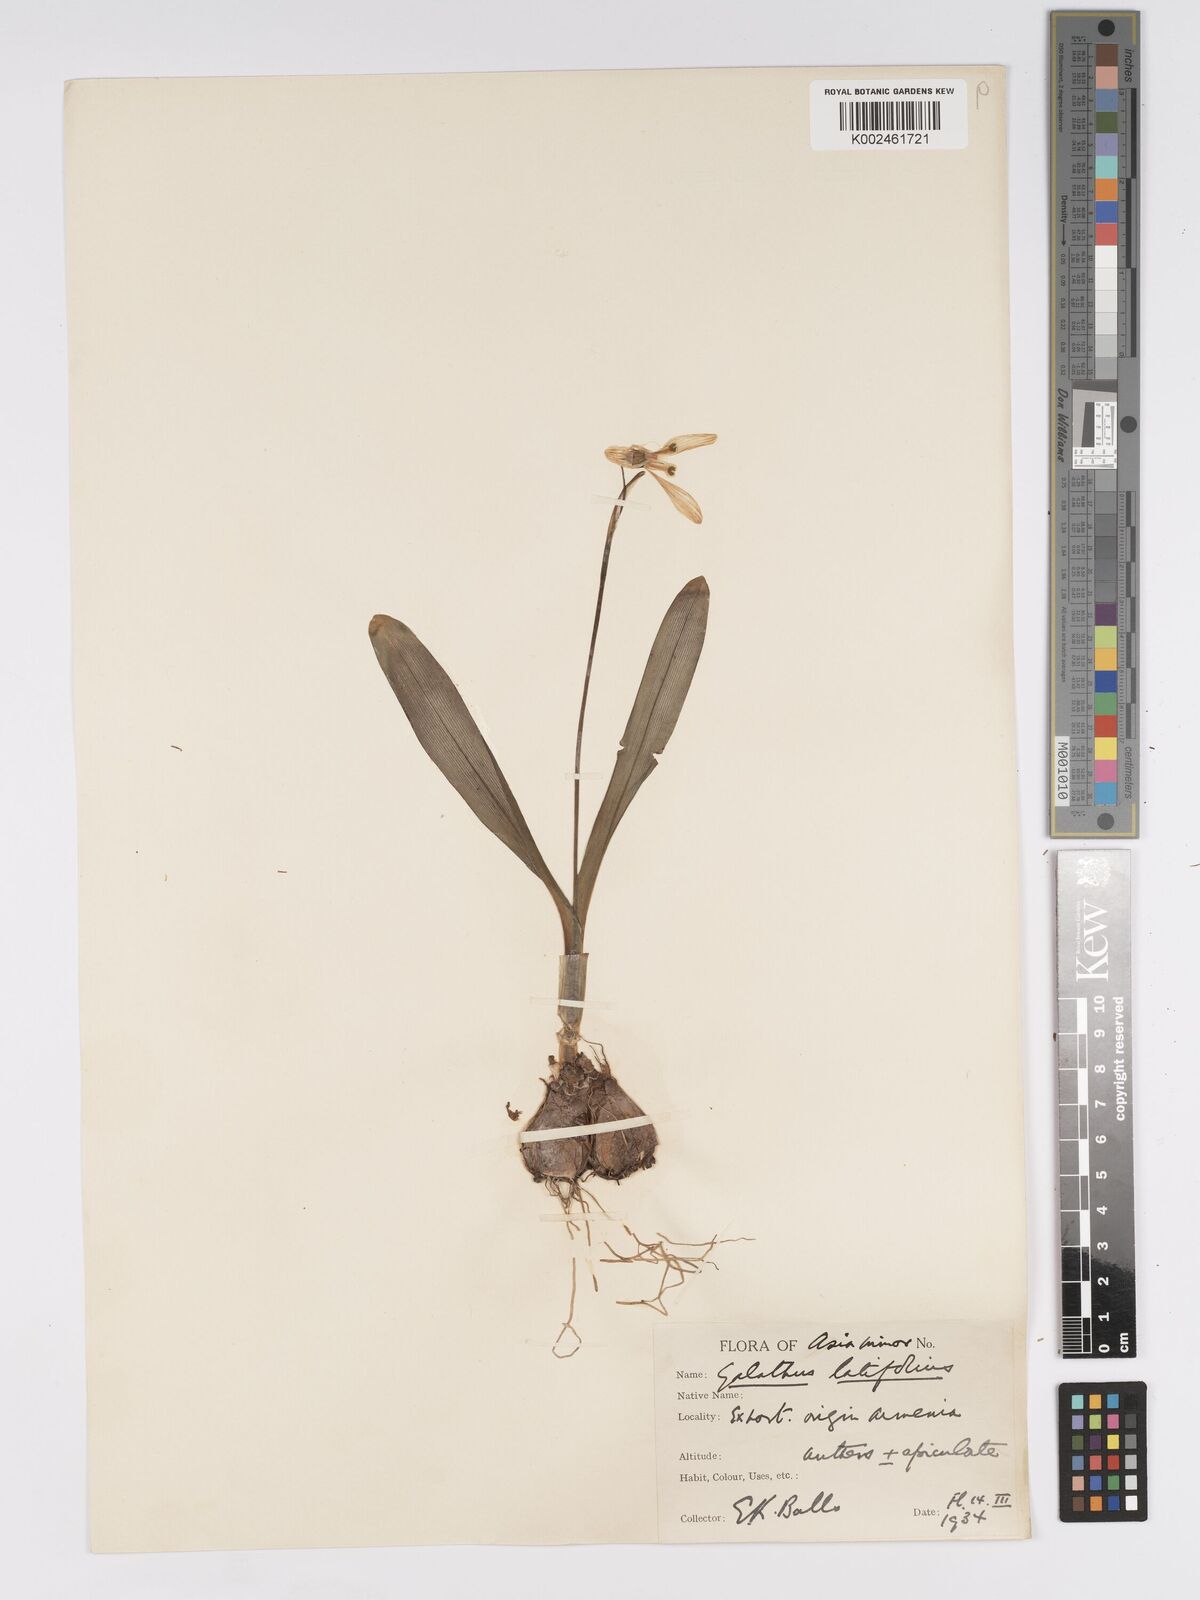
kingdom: Plantae
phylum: Tracheophyta
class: Liliopsida
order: Asparagales
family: Amaryllidaceae
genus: Galanthus
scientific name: Galanthus platyphyllus
